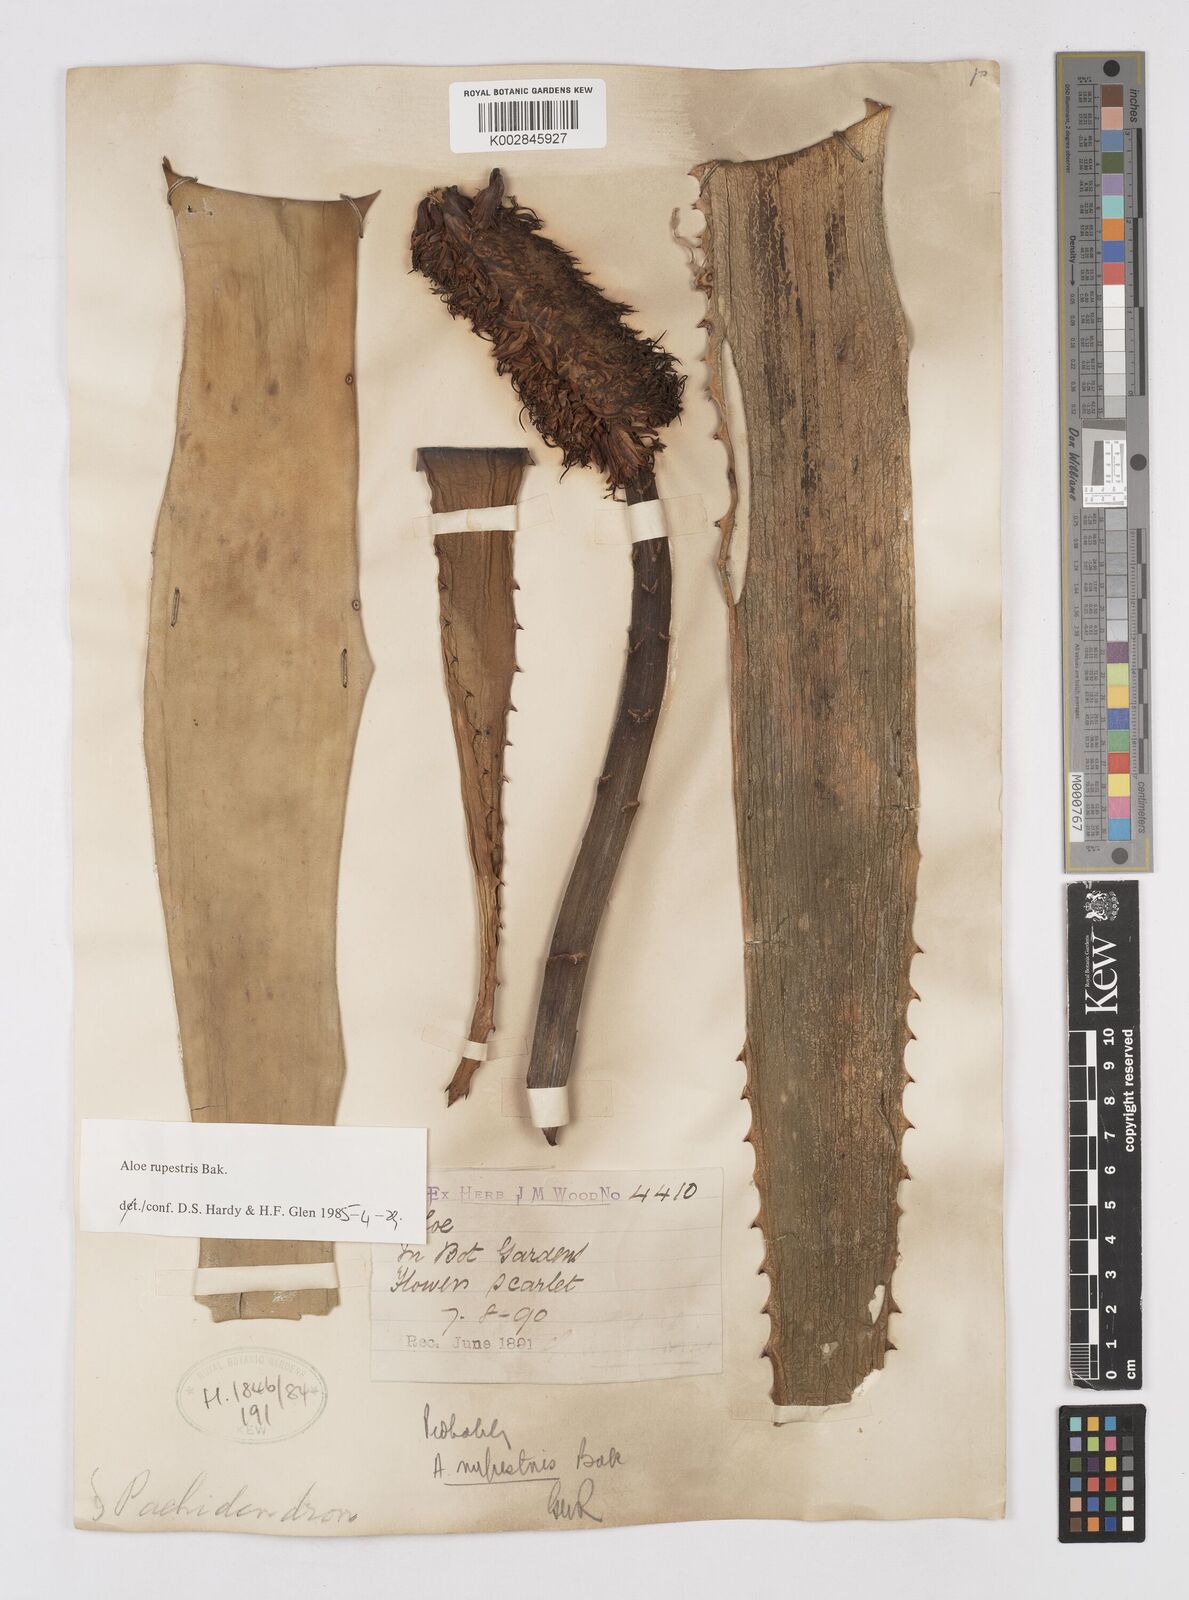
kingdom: Plantae
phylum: Tracheophyta
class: Liliopsida
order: Asparagales
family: Asphodelaceae
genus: Aloe
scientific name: Aloe rupestris
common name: Bottle-brush aloe
